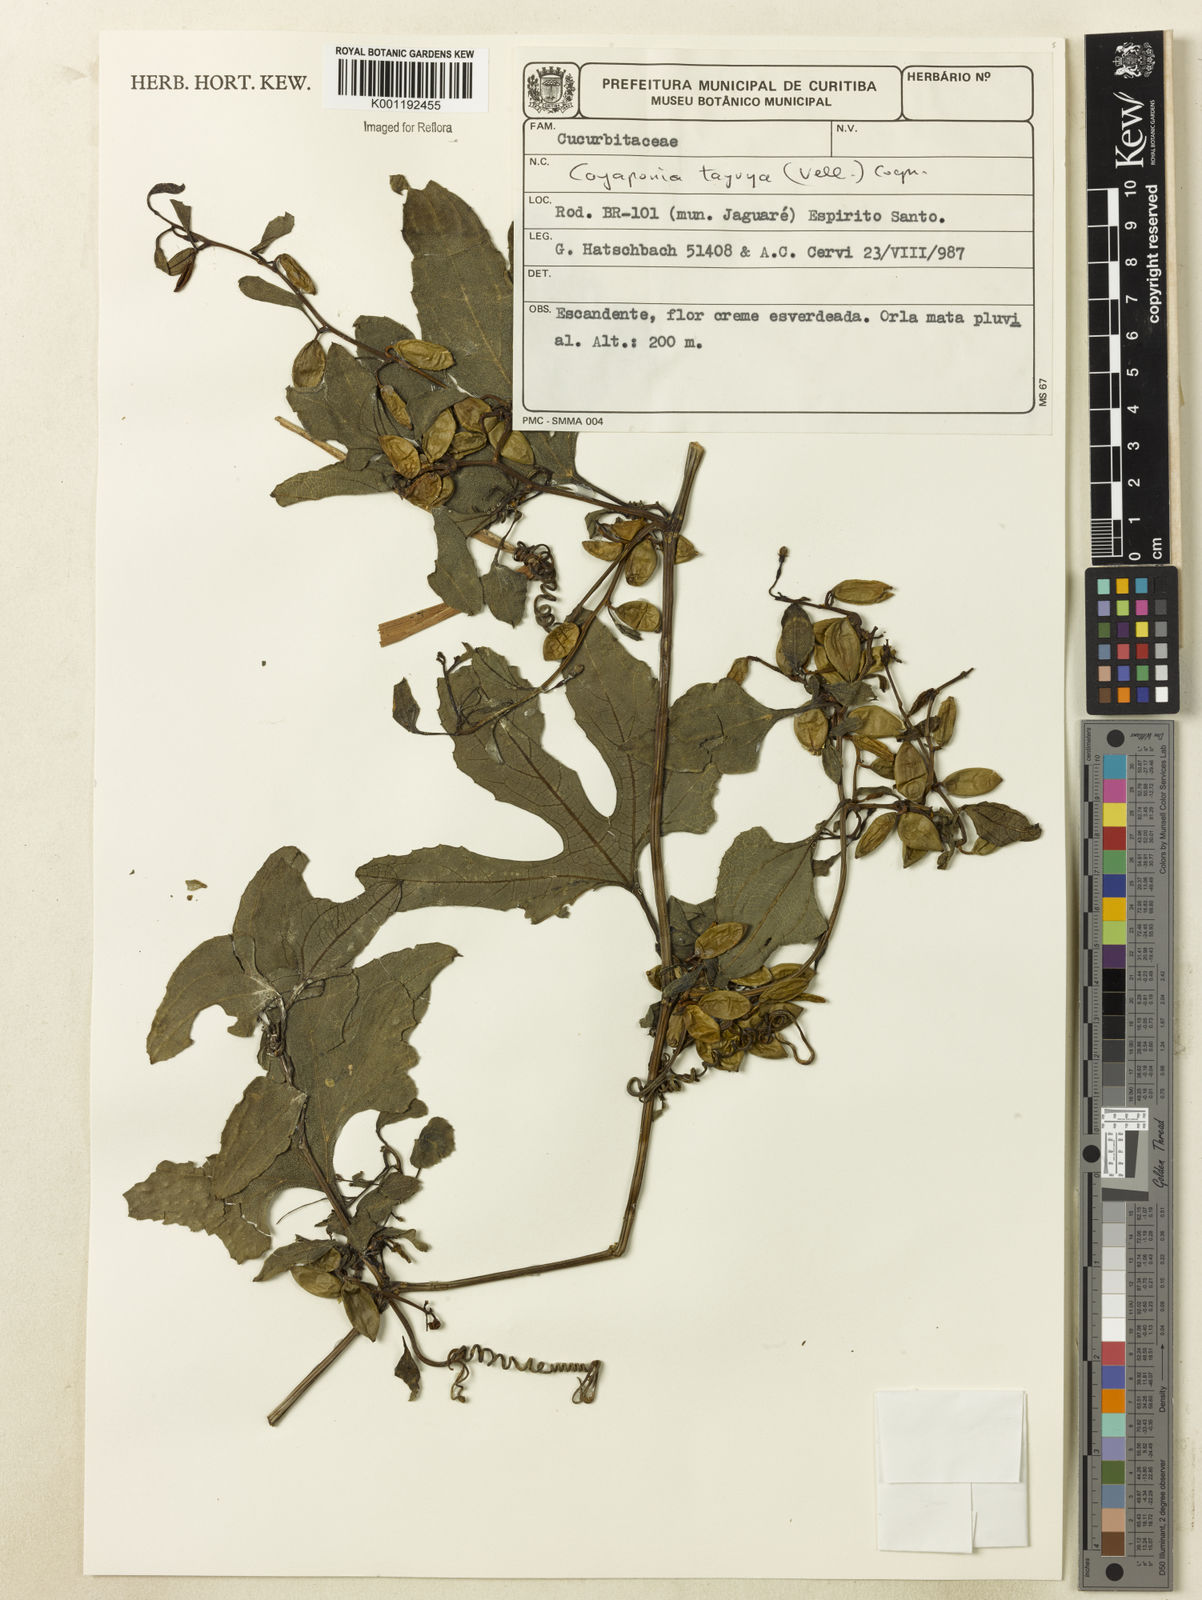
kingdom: Plantae
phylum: Tracheophyta
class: Magnoliopsida
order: Cucurbitales
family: Cucurbitaceae
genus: Cayaponia
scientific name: Cayaponia tayuya
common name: Tayuya
